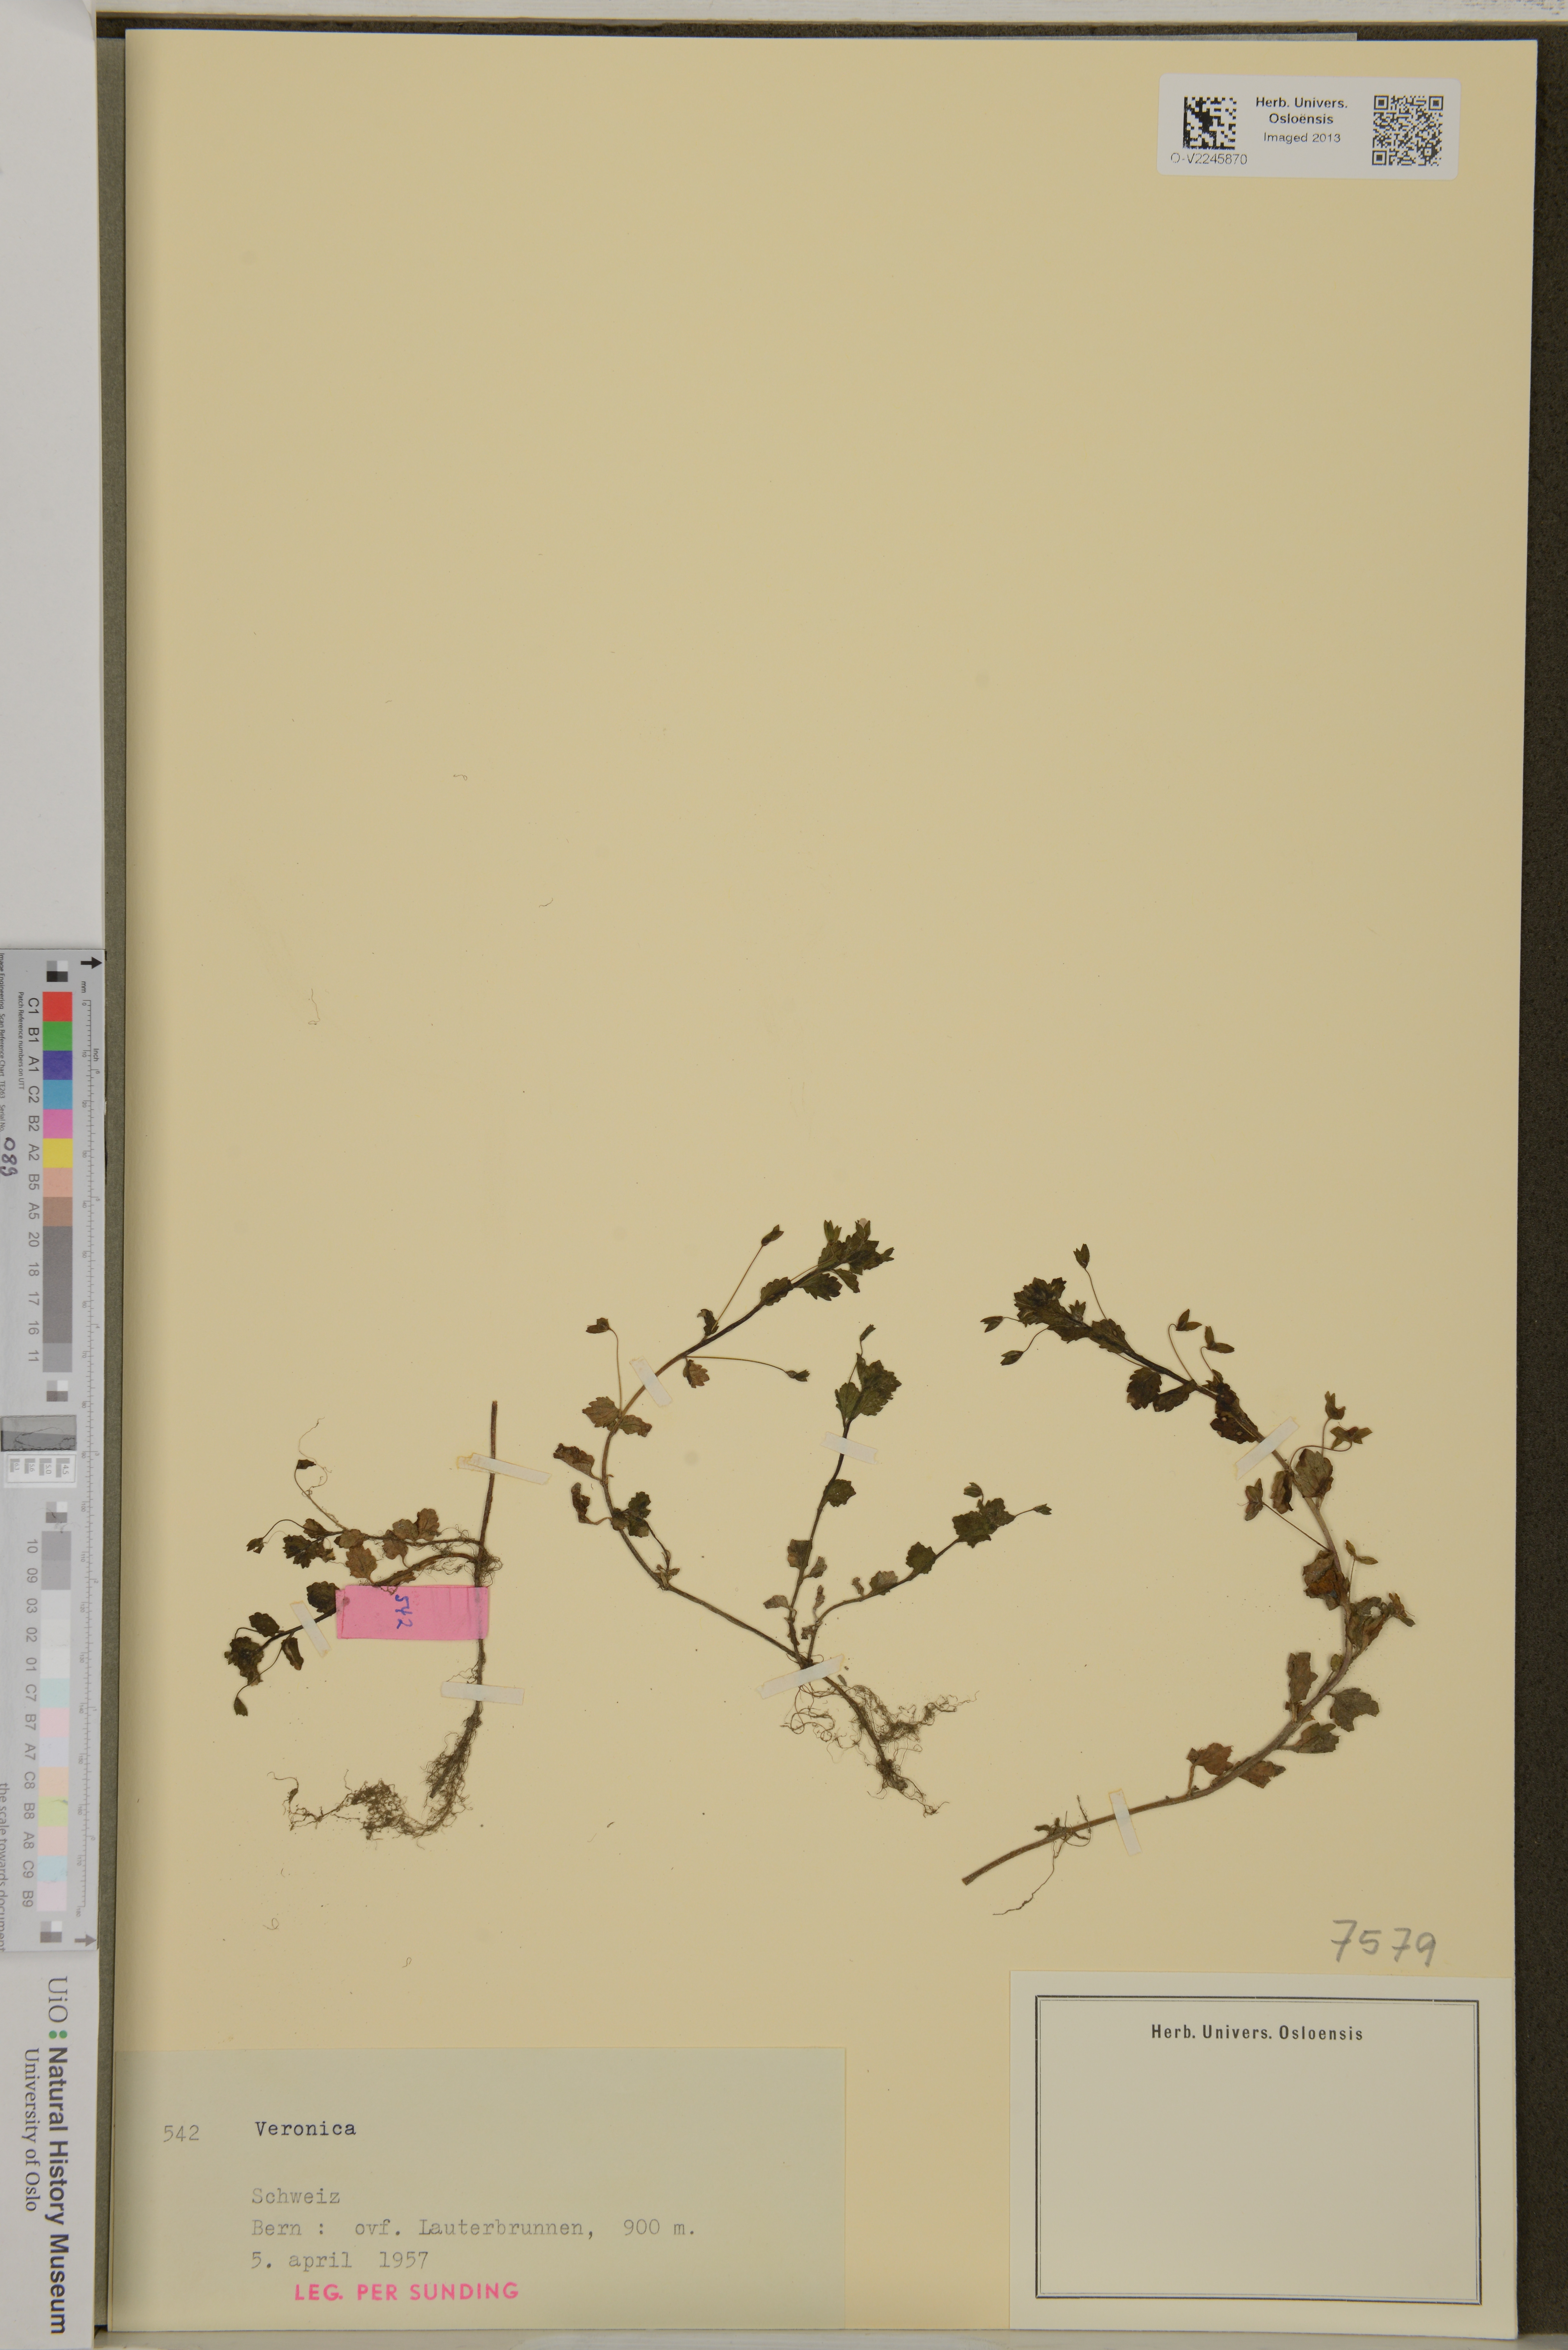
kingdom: Plantae
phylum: Tracheophyta
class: Magnoliopsida
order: Lamiales
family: Plantaginaceae
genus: Veronica
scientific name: Veronica
